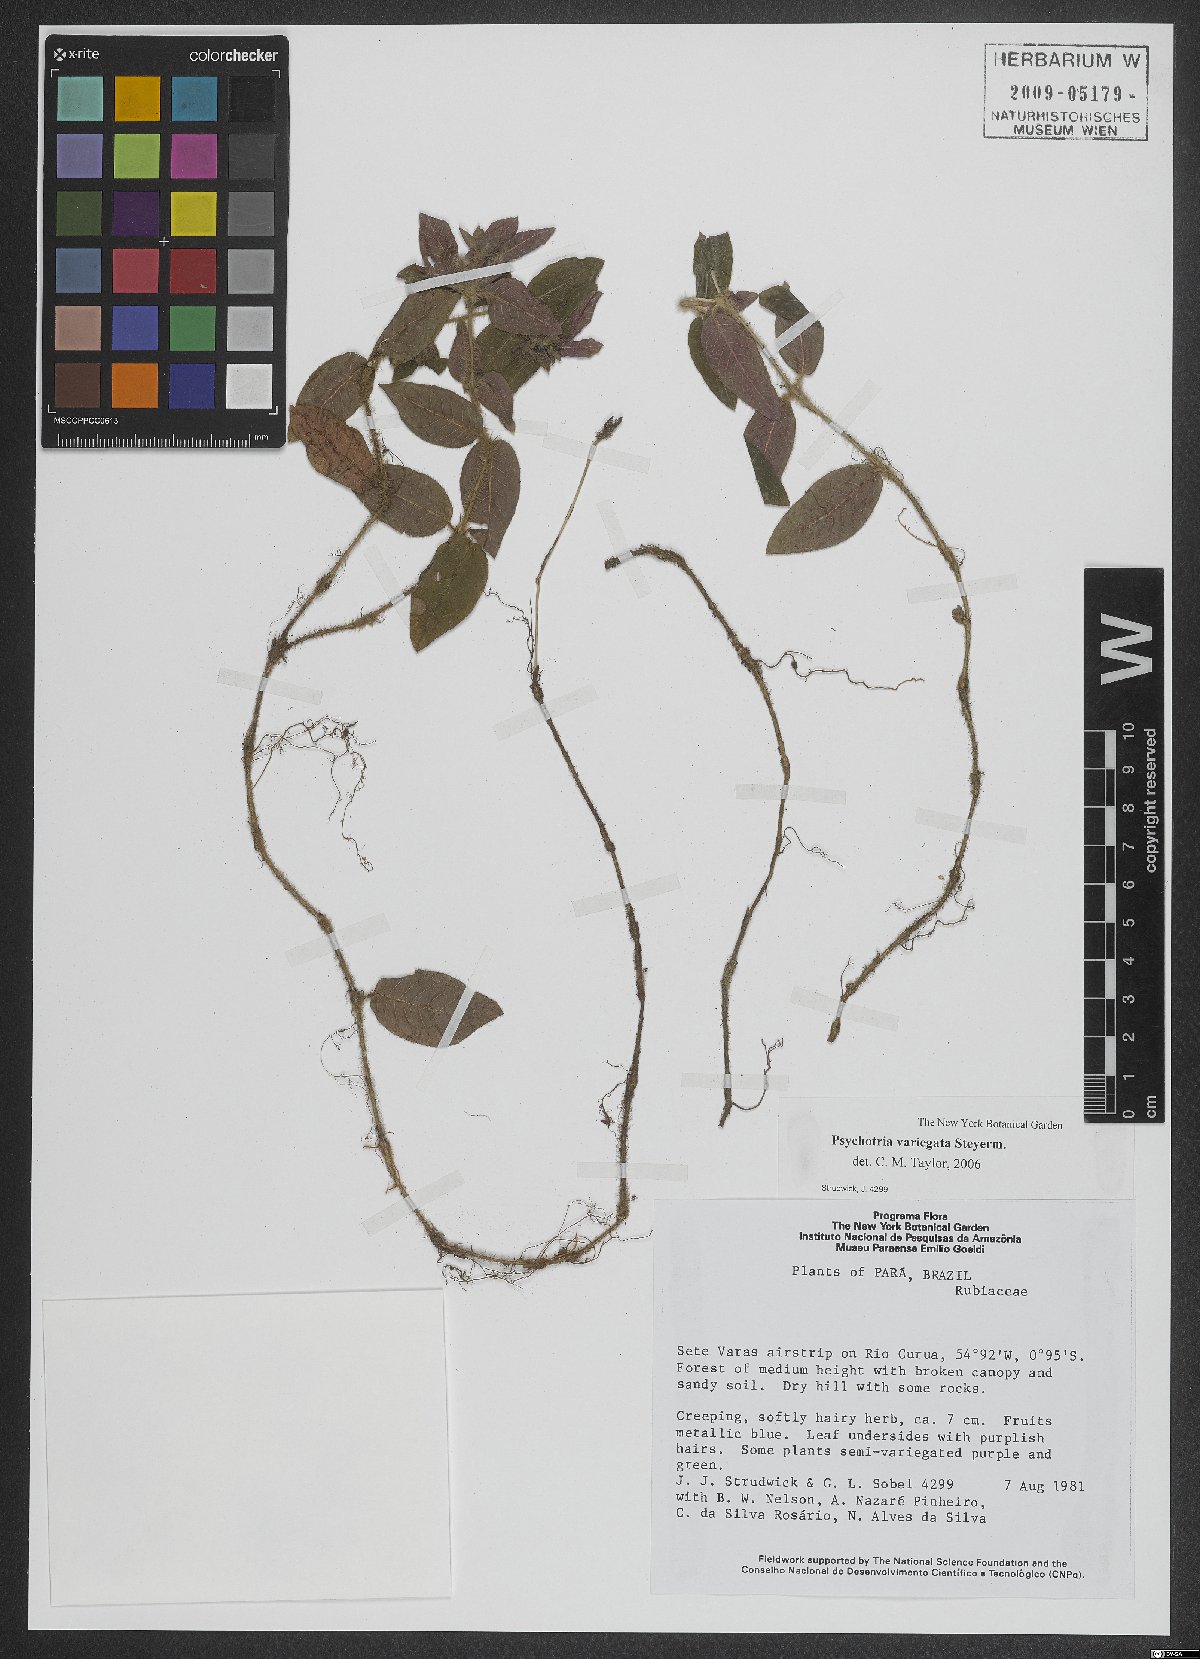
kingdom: Plantae
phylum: Tracheophyta
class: Magnoliopsida
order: Gentianales
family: Rubiaceae
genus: Palicourea
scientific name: Palicourea debilis
